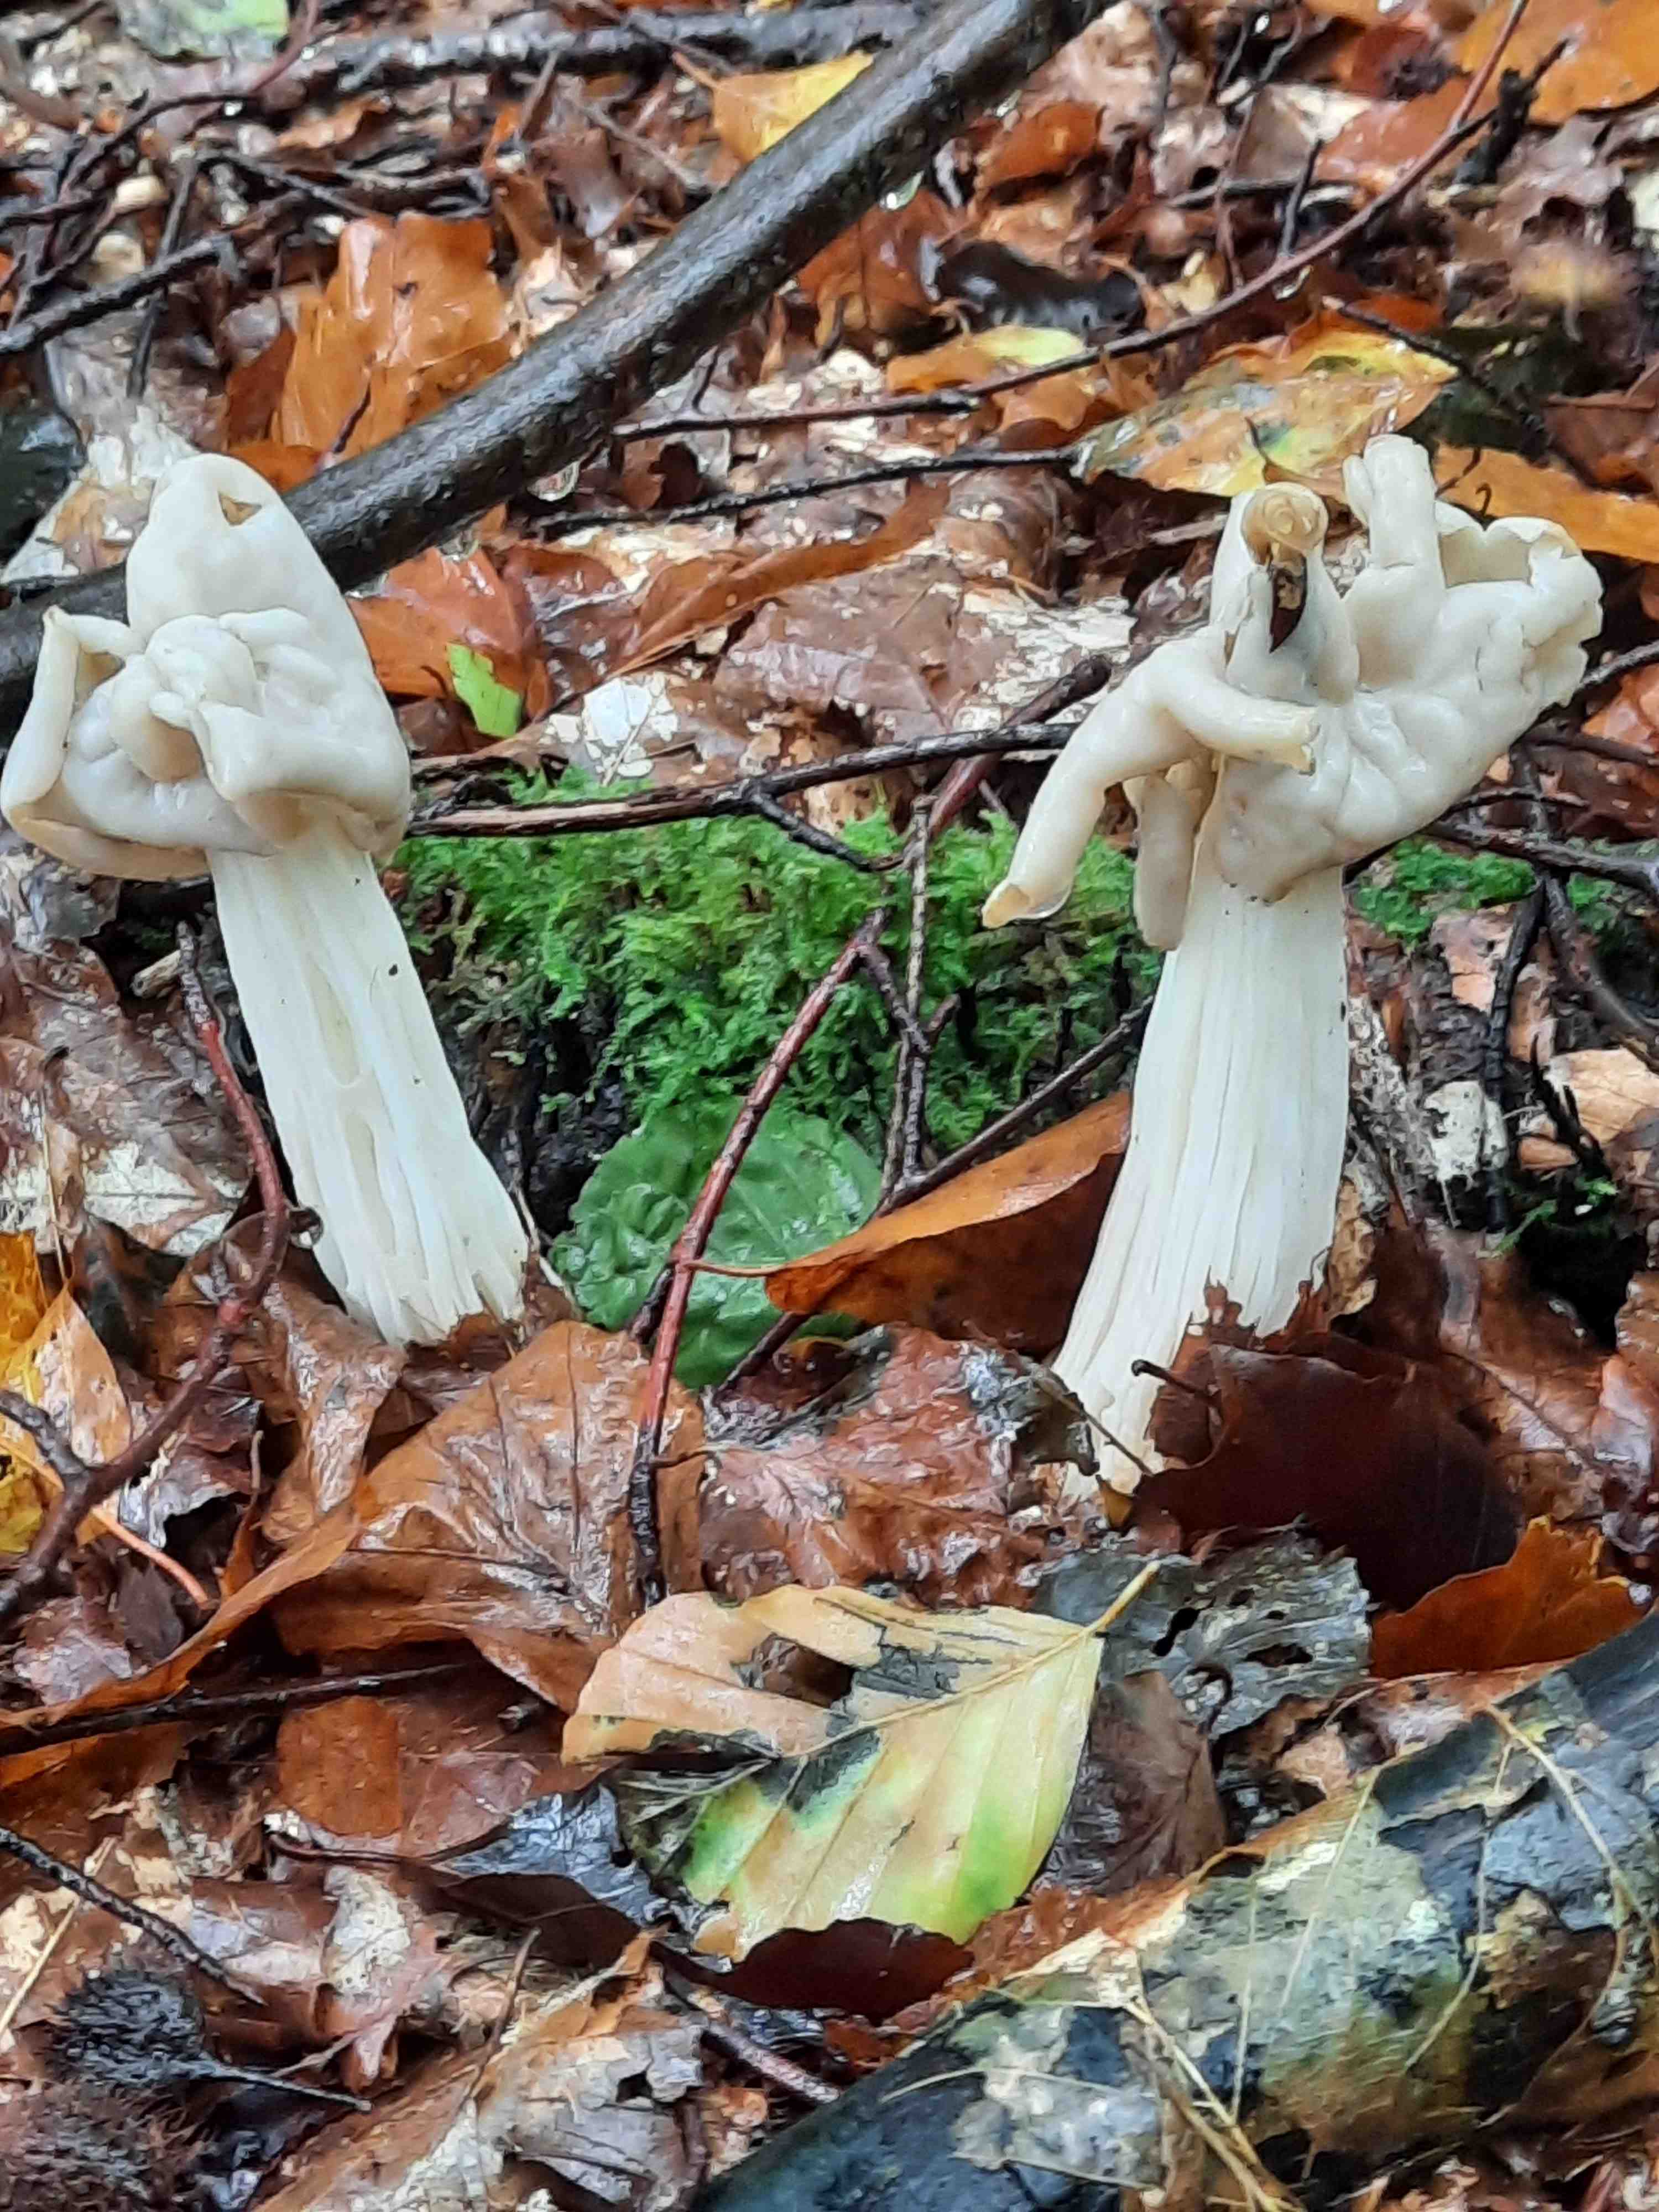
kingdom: Fungi
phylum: Ascomycota
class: Pezizomycetes
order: Pezizales
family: Helvellaceae
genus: Helvella
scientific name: Helvella crispa
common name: kruset foldhat
